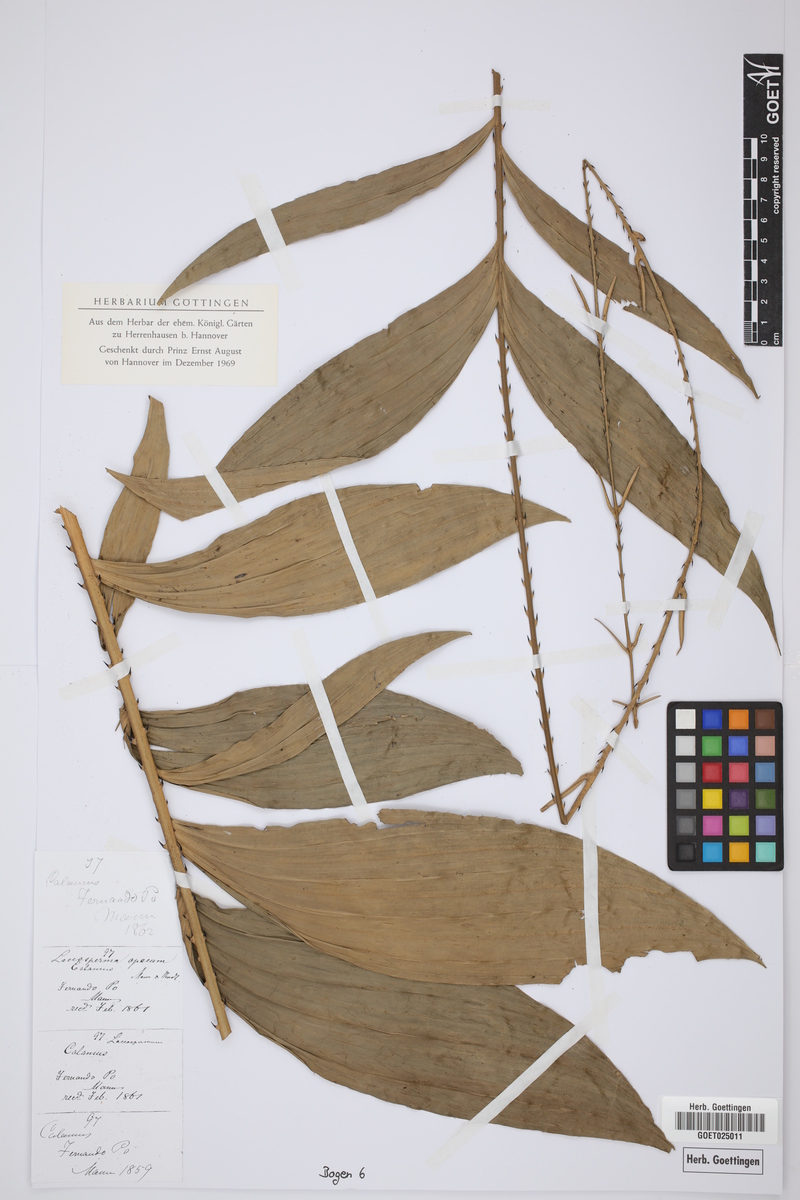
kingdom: Plantae
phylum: Tracheophyta
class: Liliopsida
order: Arecales
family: Arecaceae
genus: Laccosperma
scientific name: Laccosperma opacum
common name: Rattan
